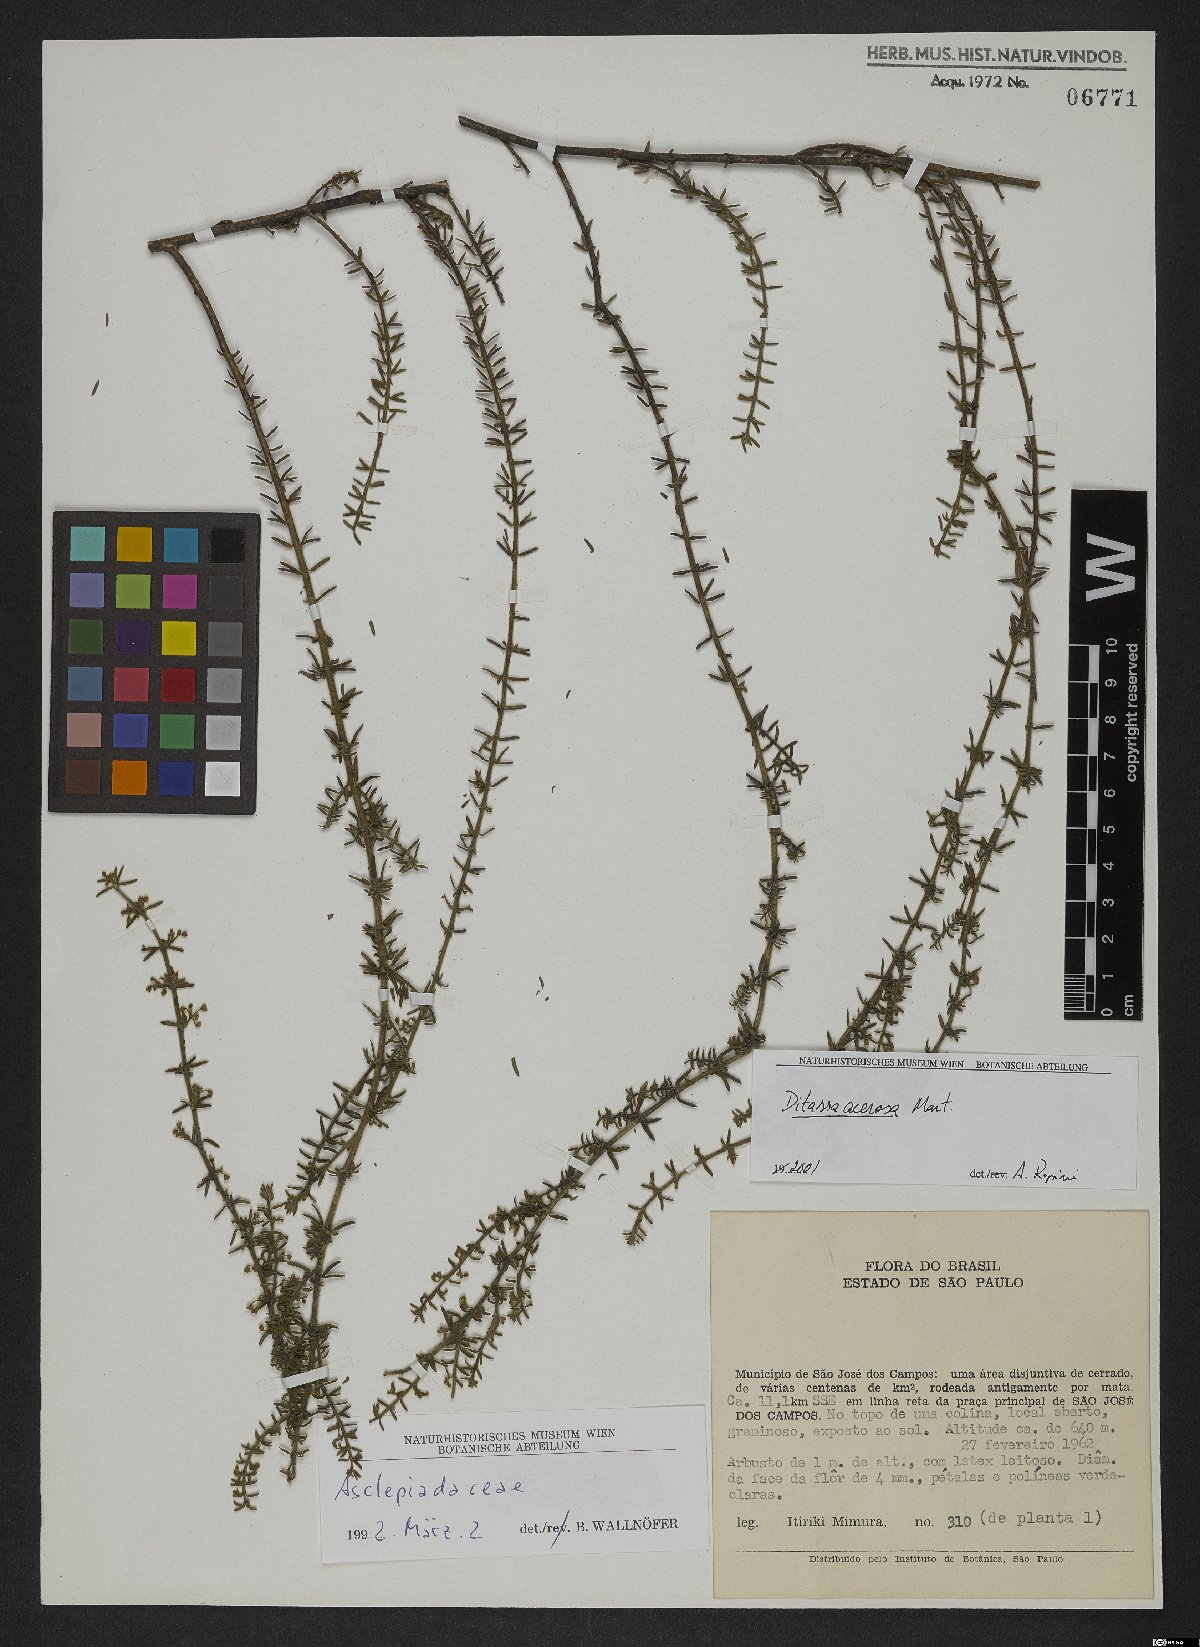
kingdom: Plantae
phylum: Tracheophyta
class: Magnoliopsida
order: Gentianales
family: Apocynaceae
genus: Minaria
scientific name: Minaria acerosa
